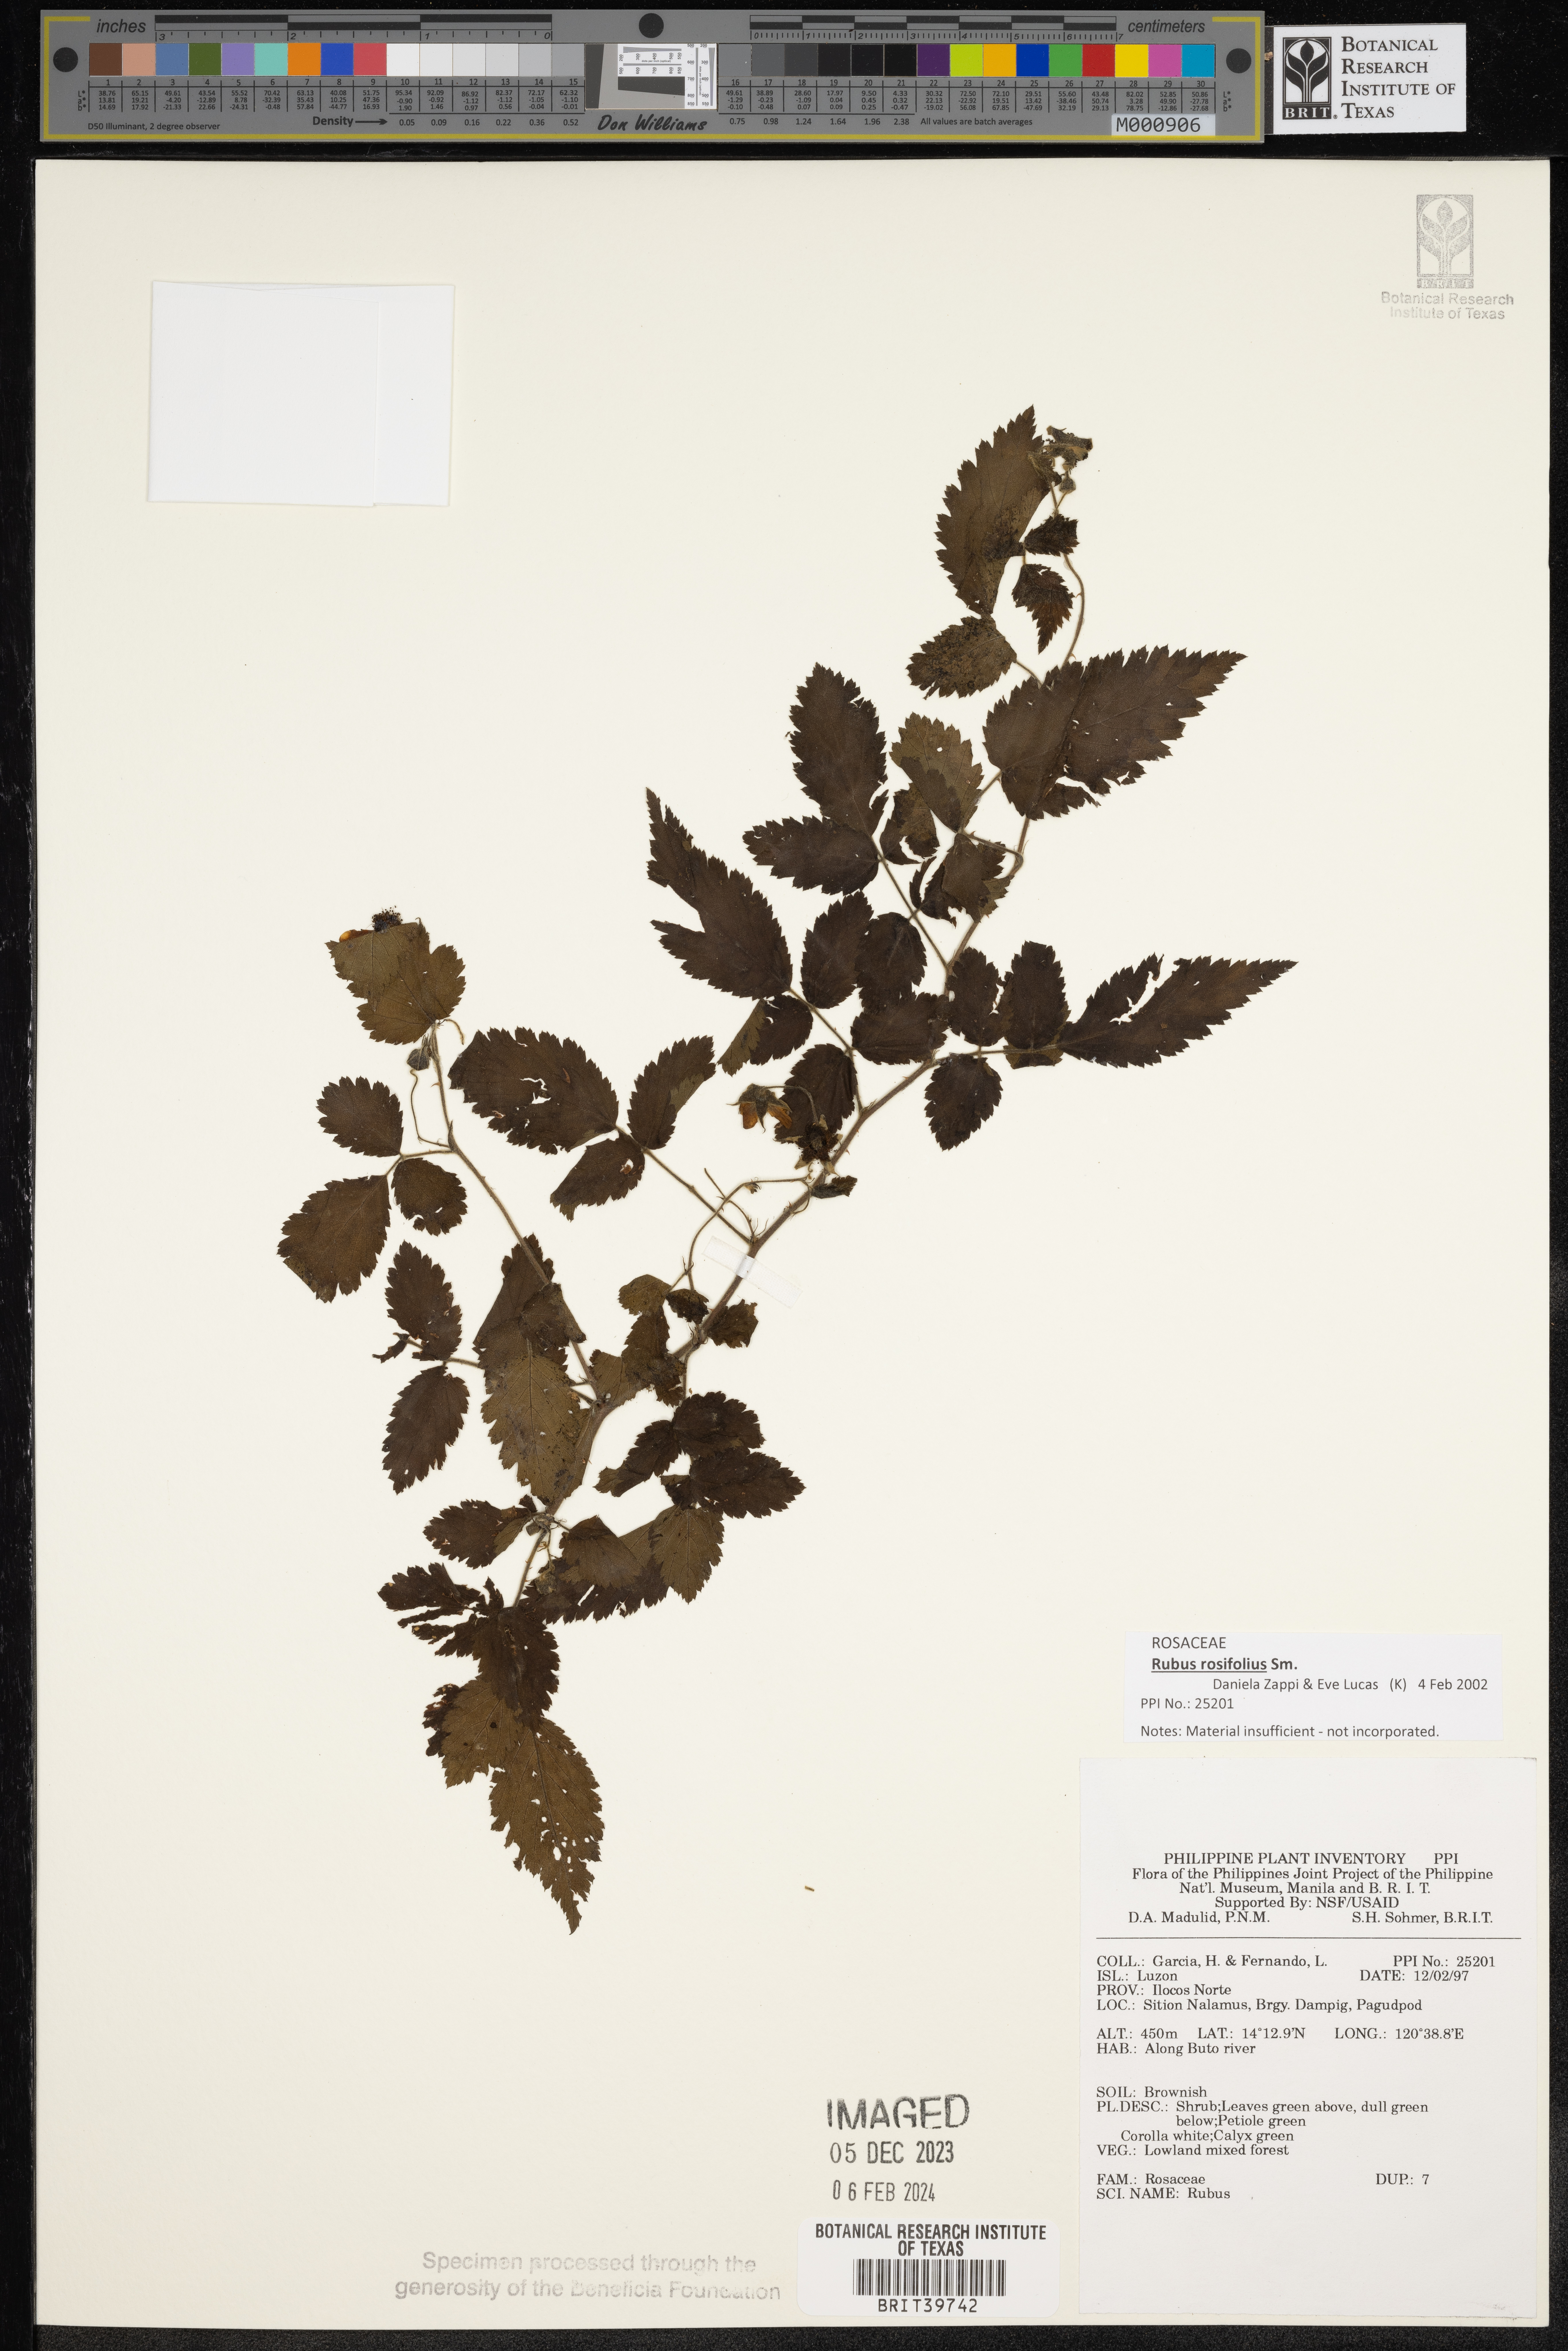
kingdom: Plantae
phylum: Tracheophyta
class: Magnoliopsida
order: Rosales
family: Rosaceae
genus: Rubus
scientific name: Rubus
